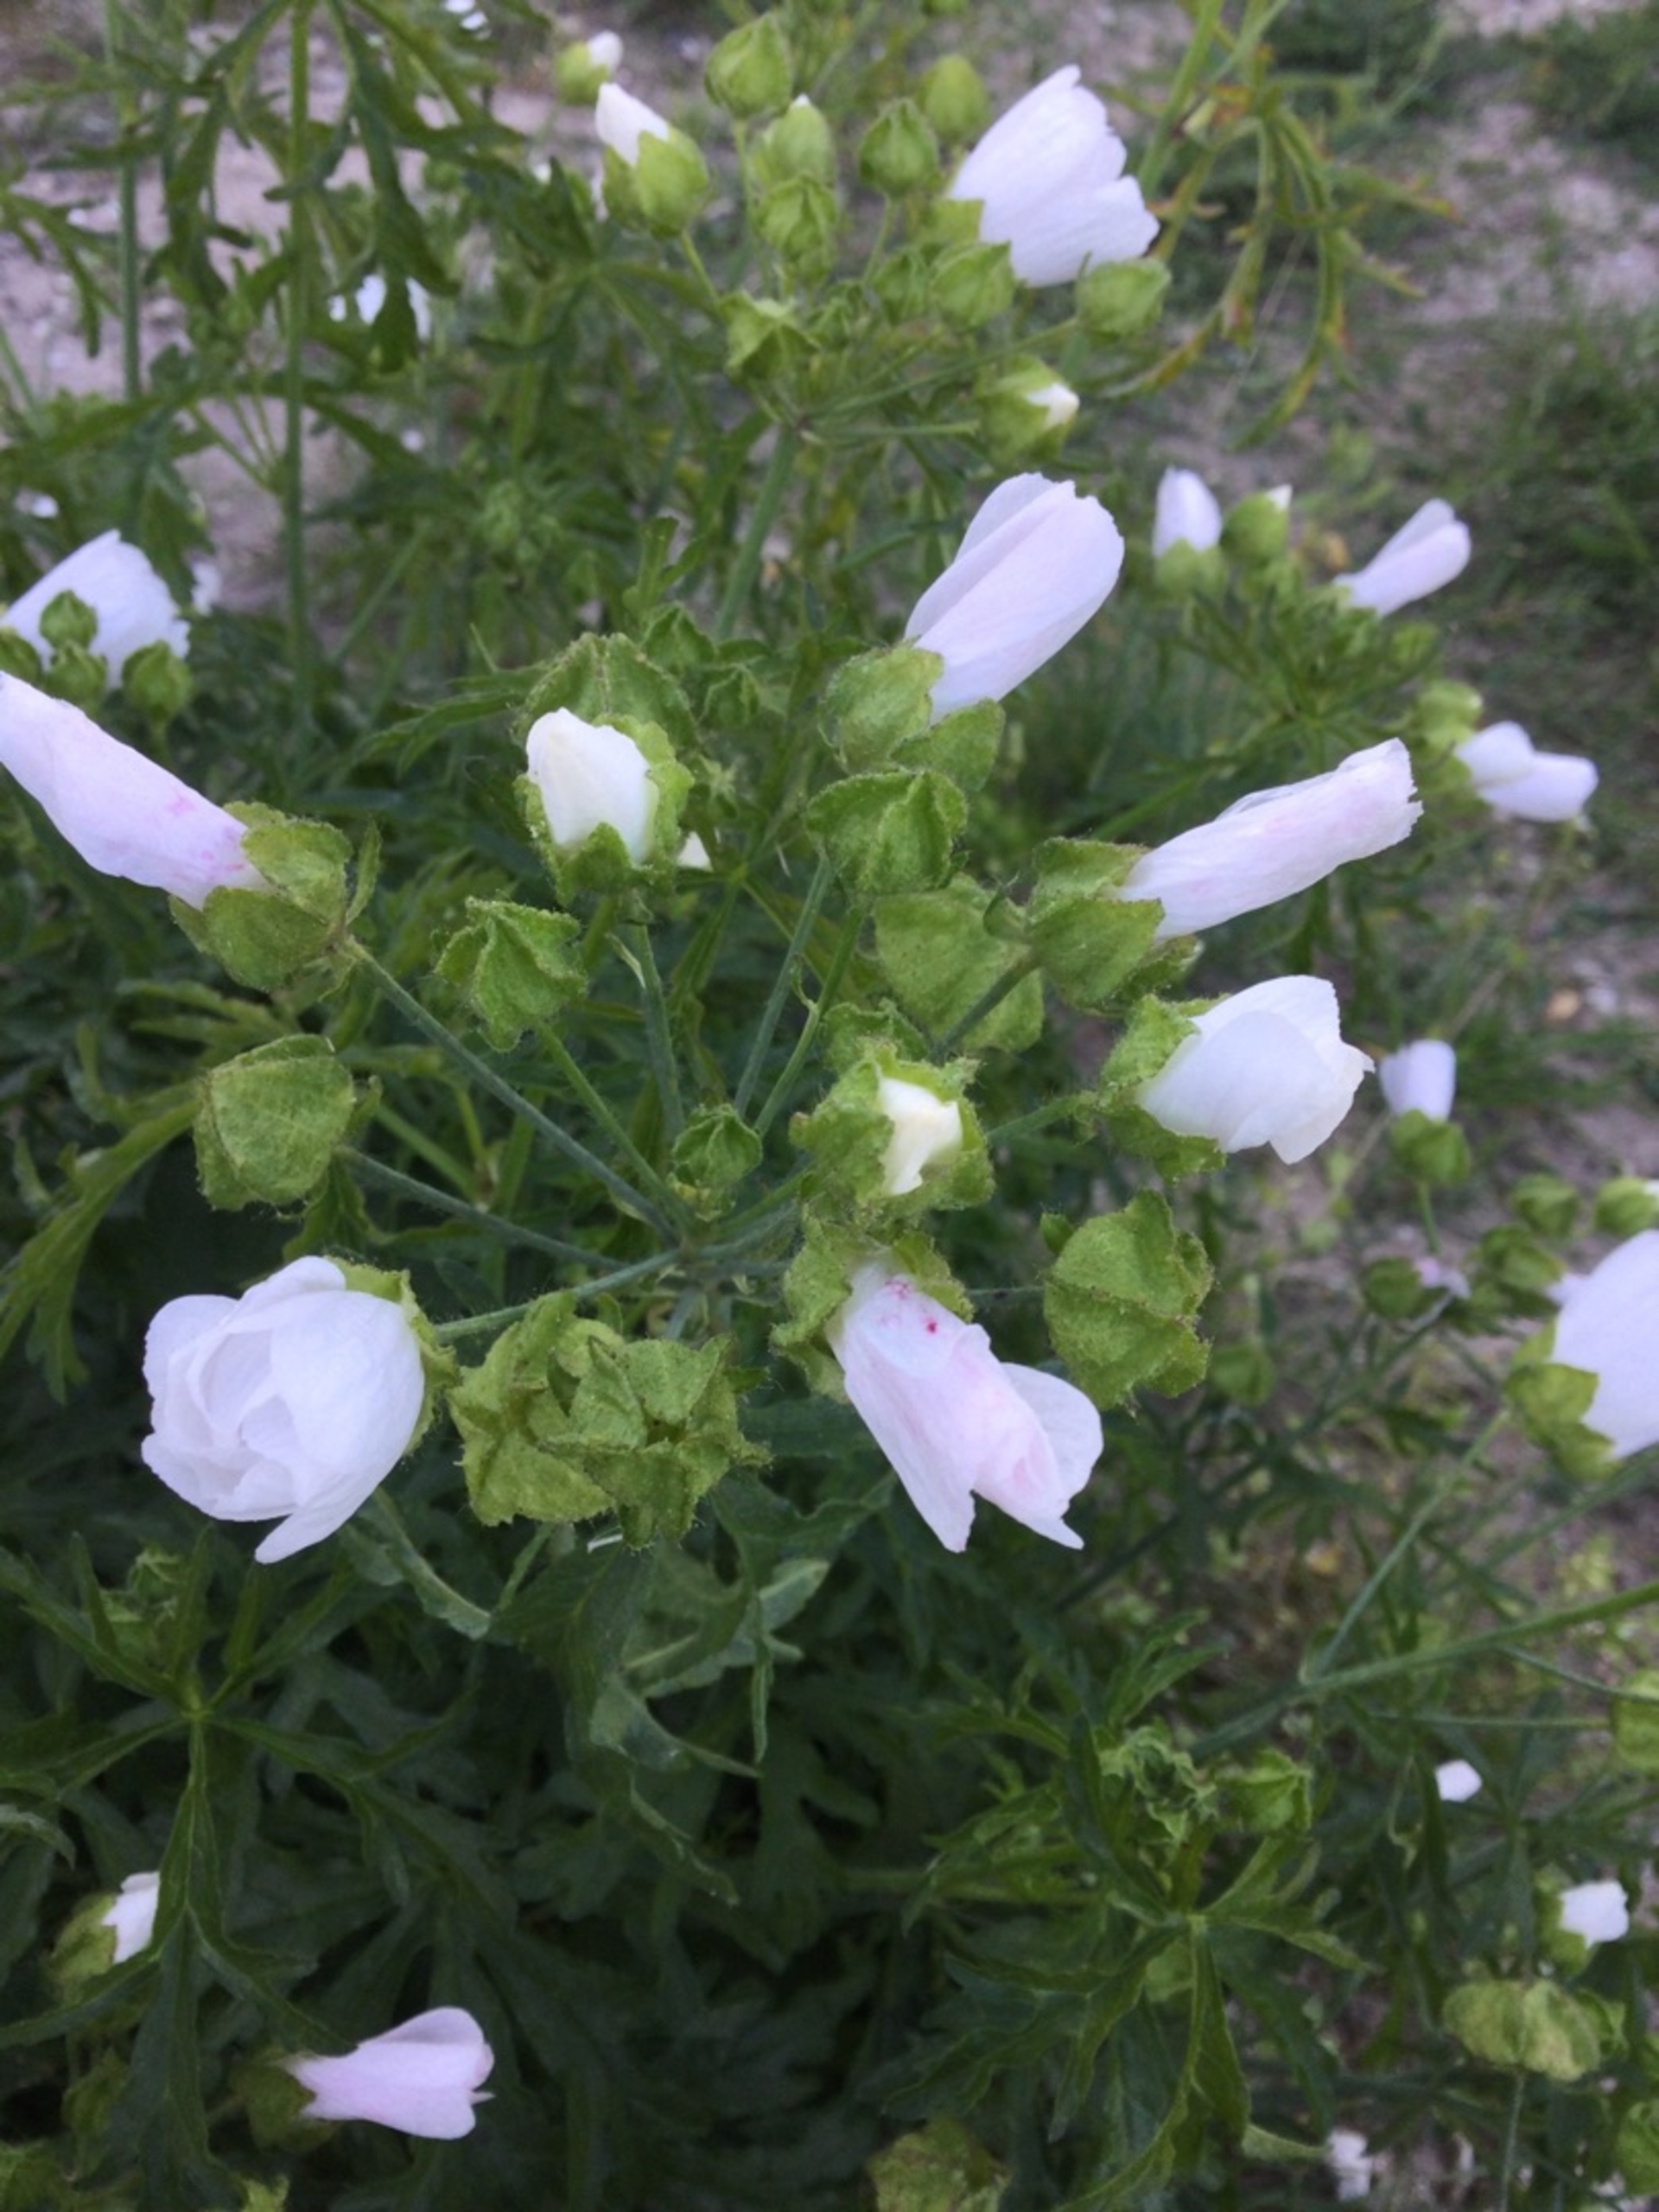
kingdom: Plantae
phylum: Tracheophyta
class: Magnoliopsida
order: Malvales
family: Malvaceae
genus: Malva
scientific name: Malva moschata
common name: Moskus-katost
